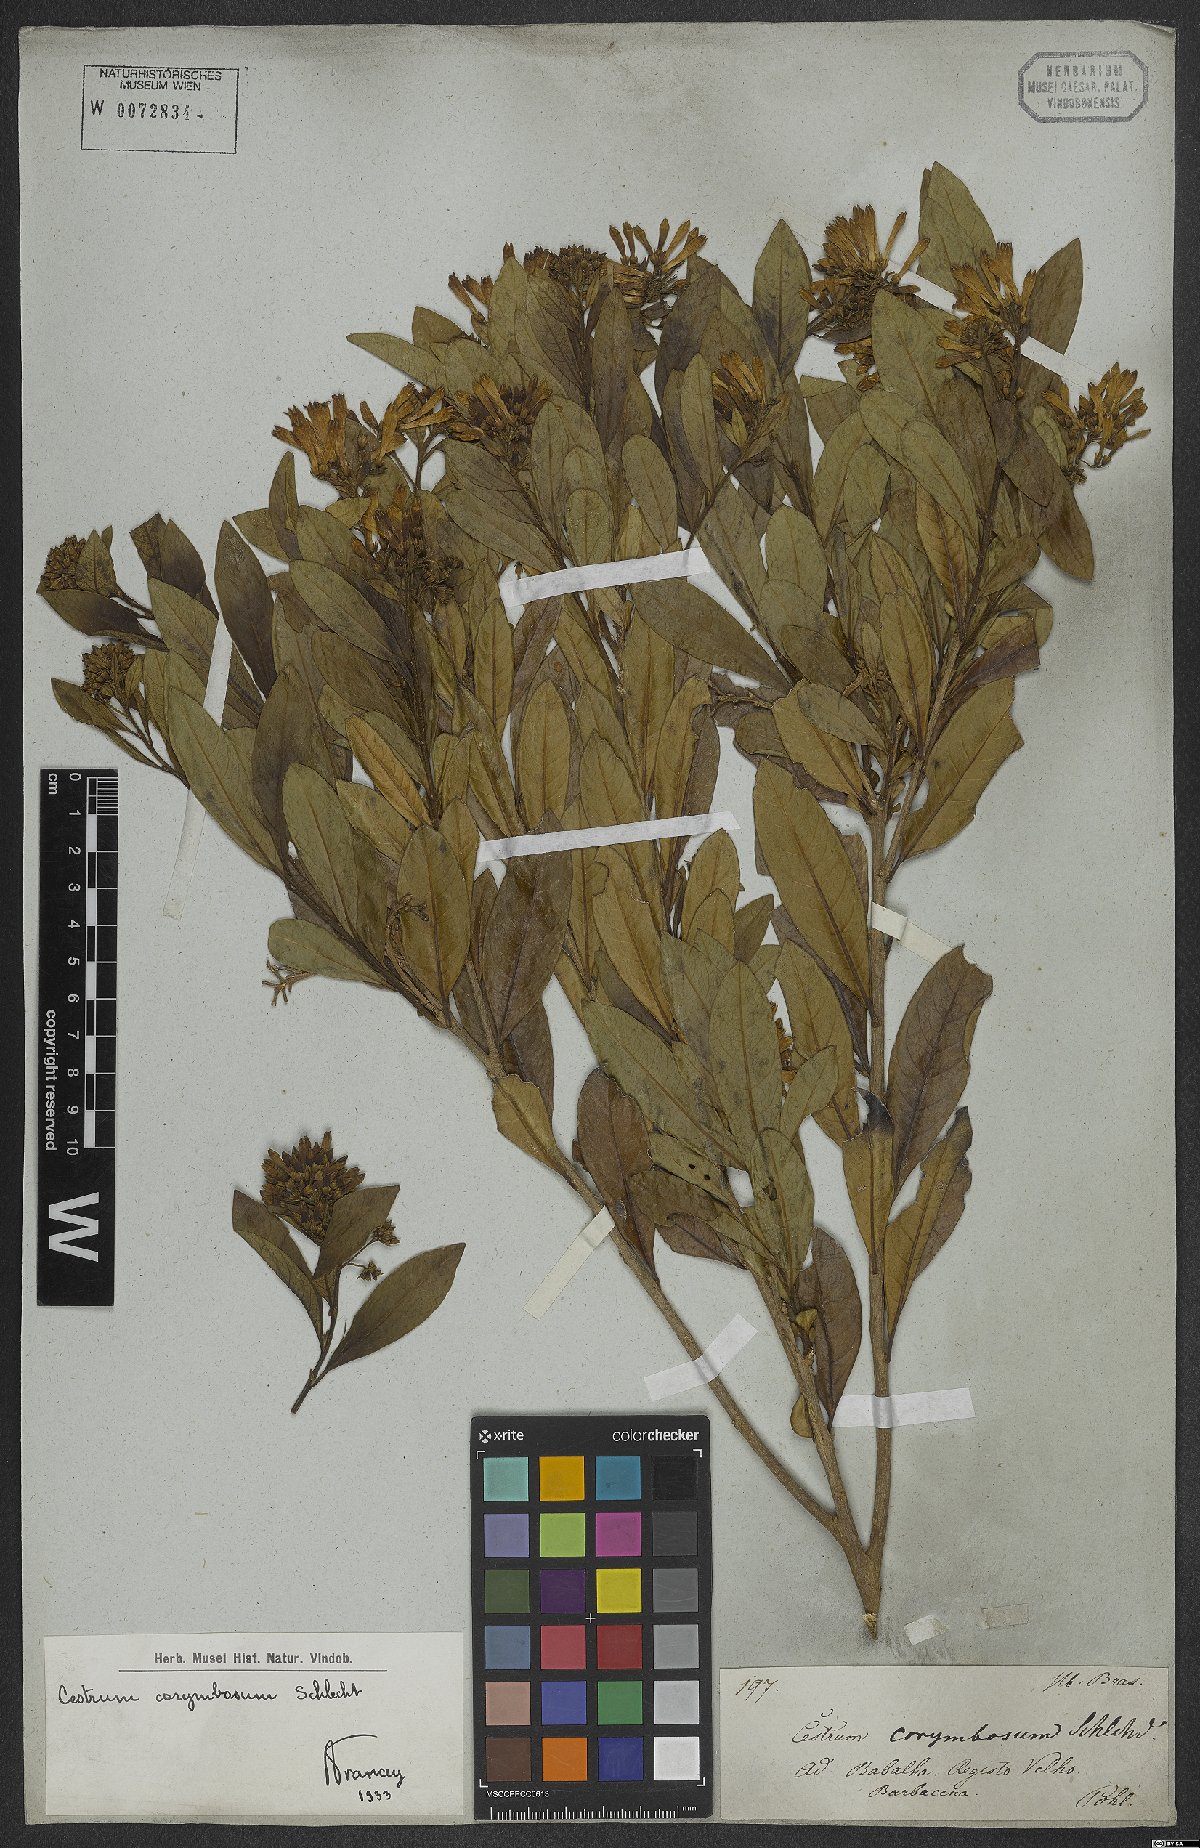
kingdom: Plantae
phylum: Tracheophyta
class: Magnoliopsida
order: Solanales
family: Solanaceae
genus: Cestrum
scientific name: Cestrum corymbosum
